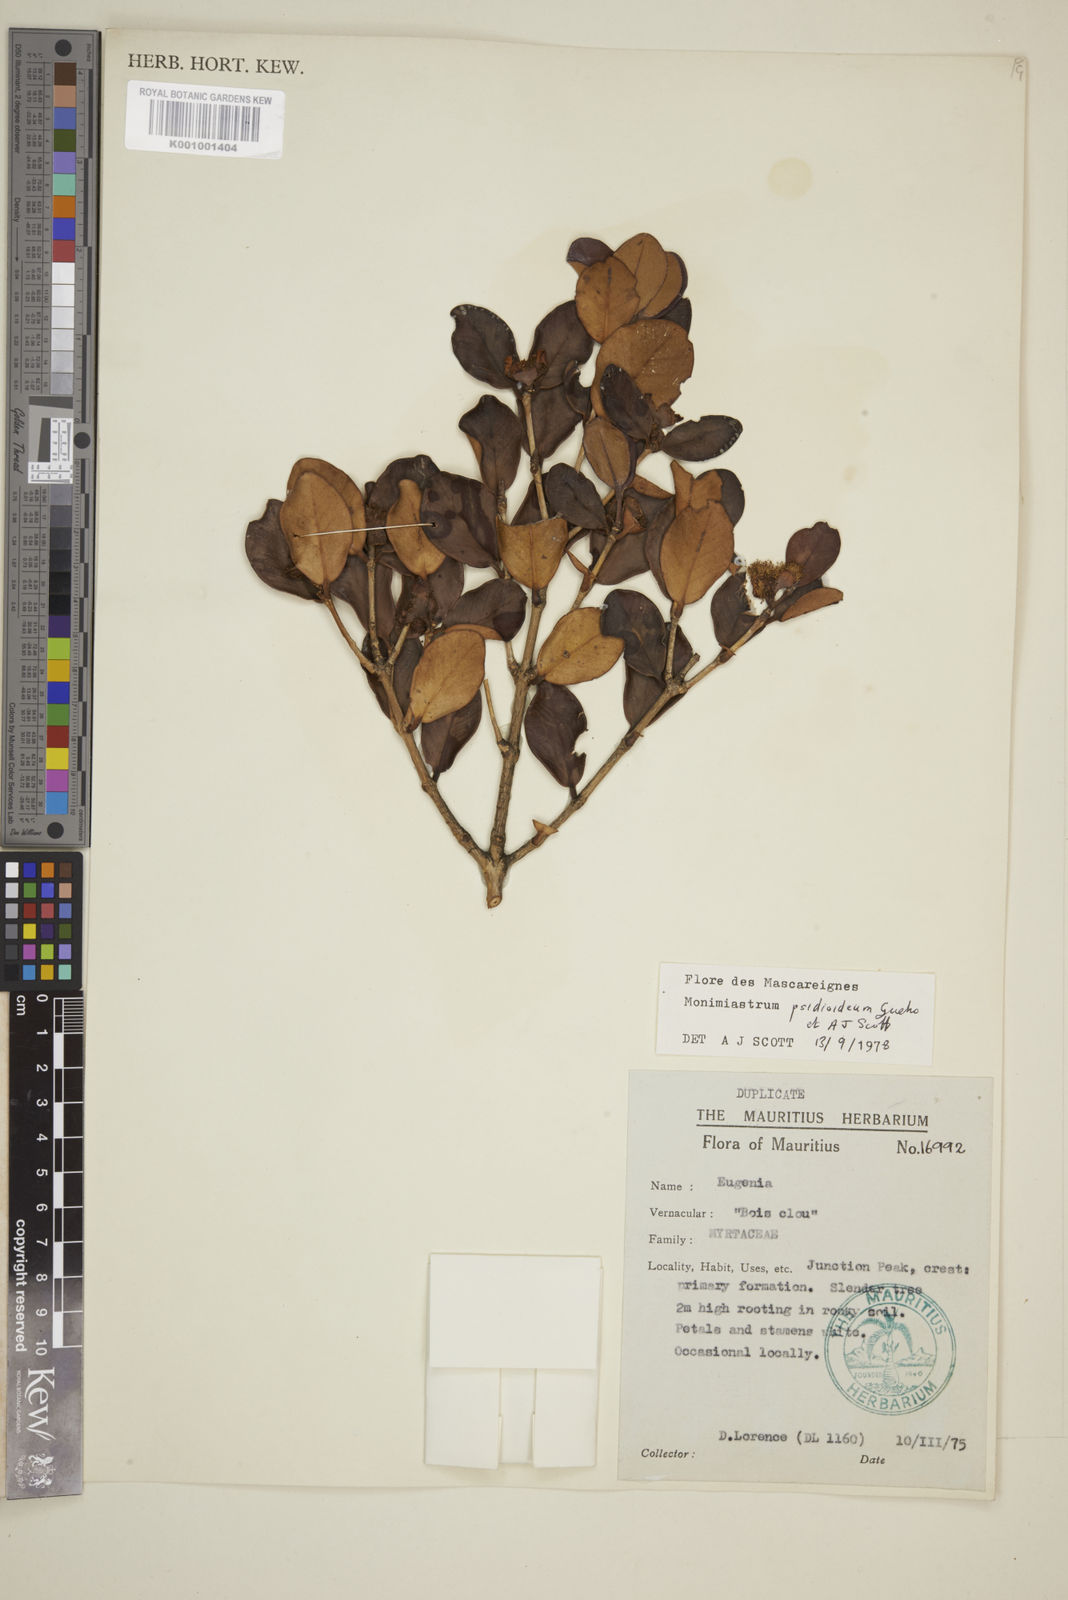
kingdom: Plantae
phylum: Tracheophyta
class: Magnoliopsida
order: Myrtales
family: Myrtaceae
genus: Eugenia
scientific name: Eugenia psidioidea
